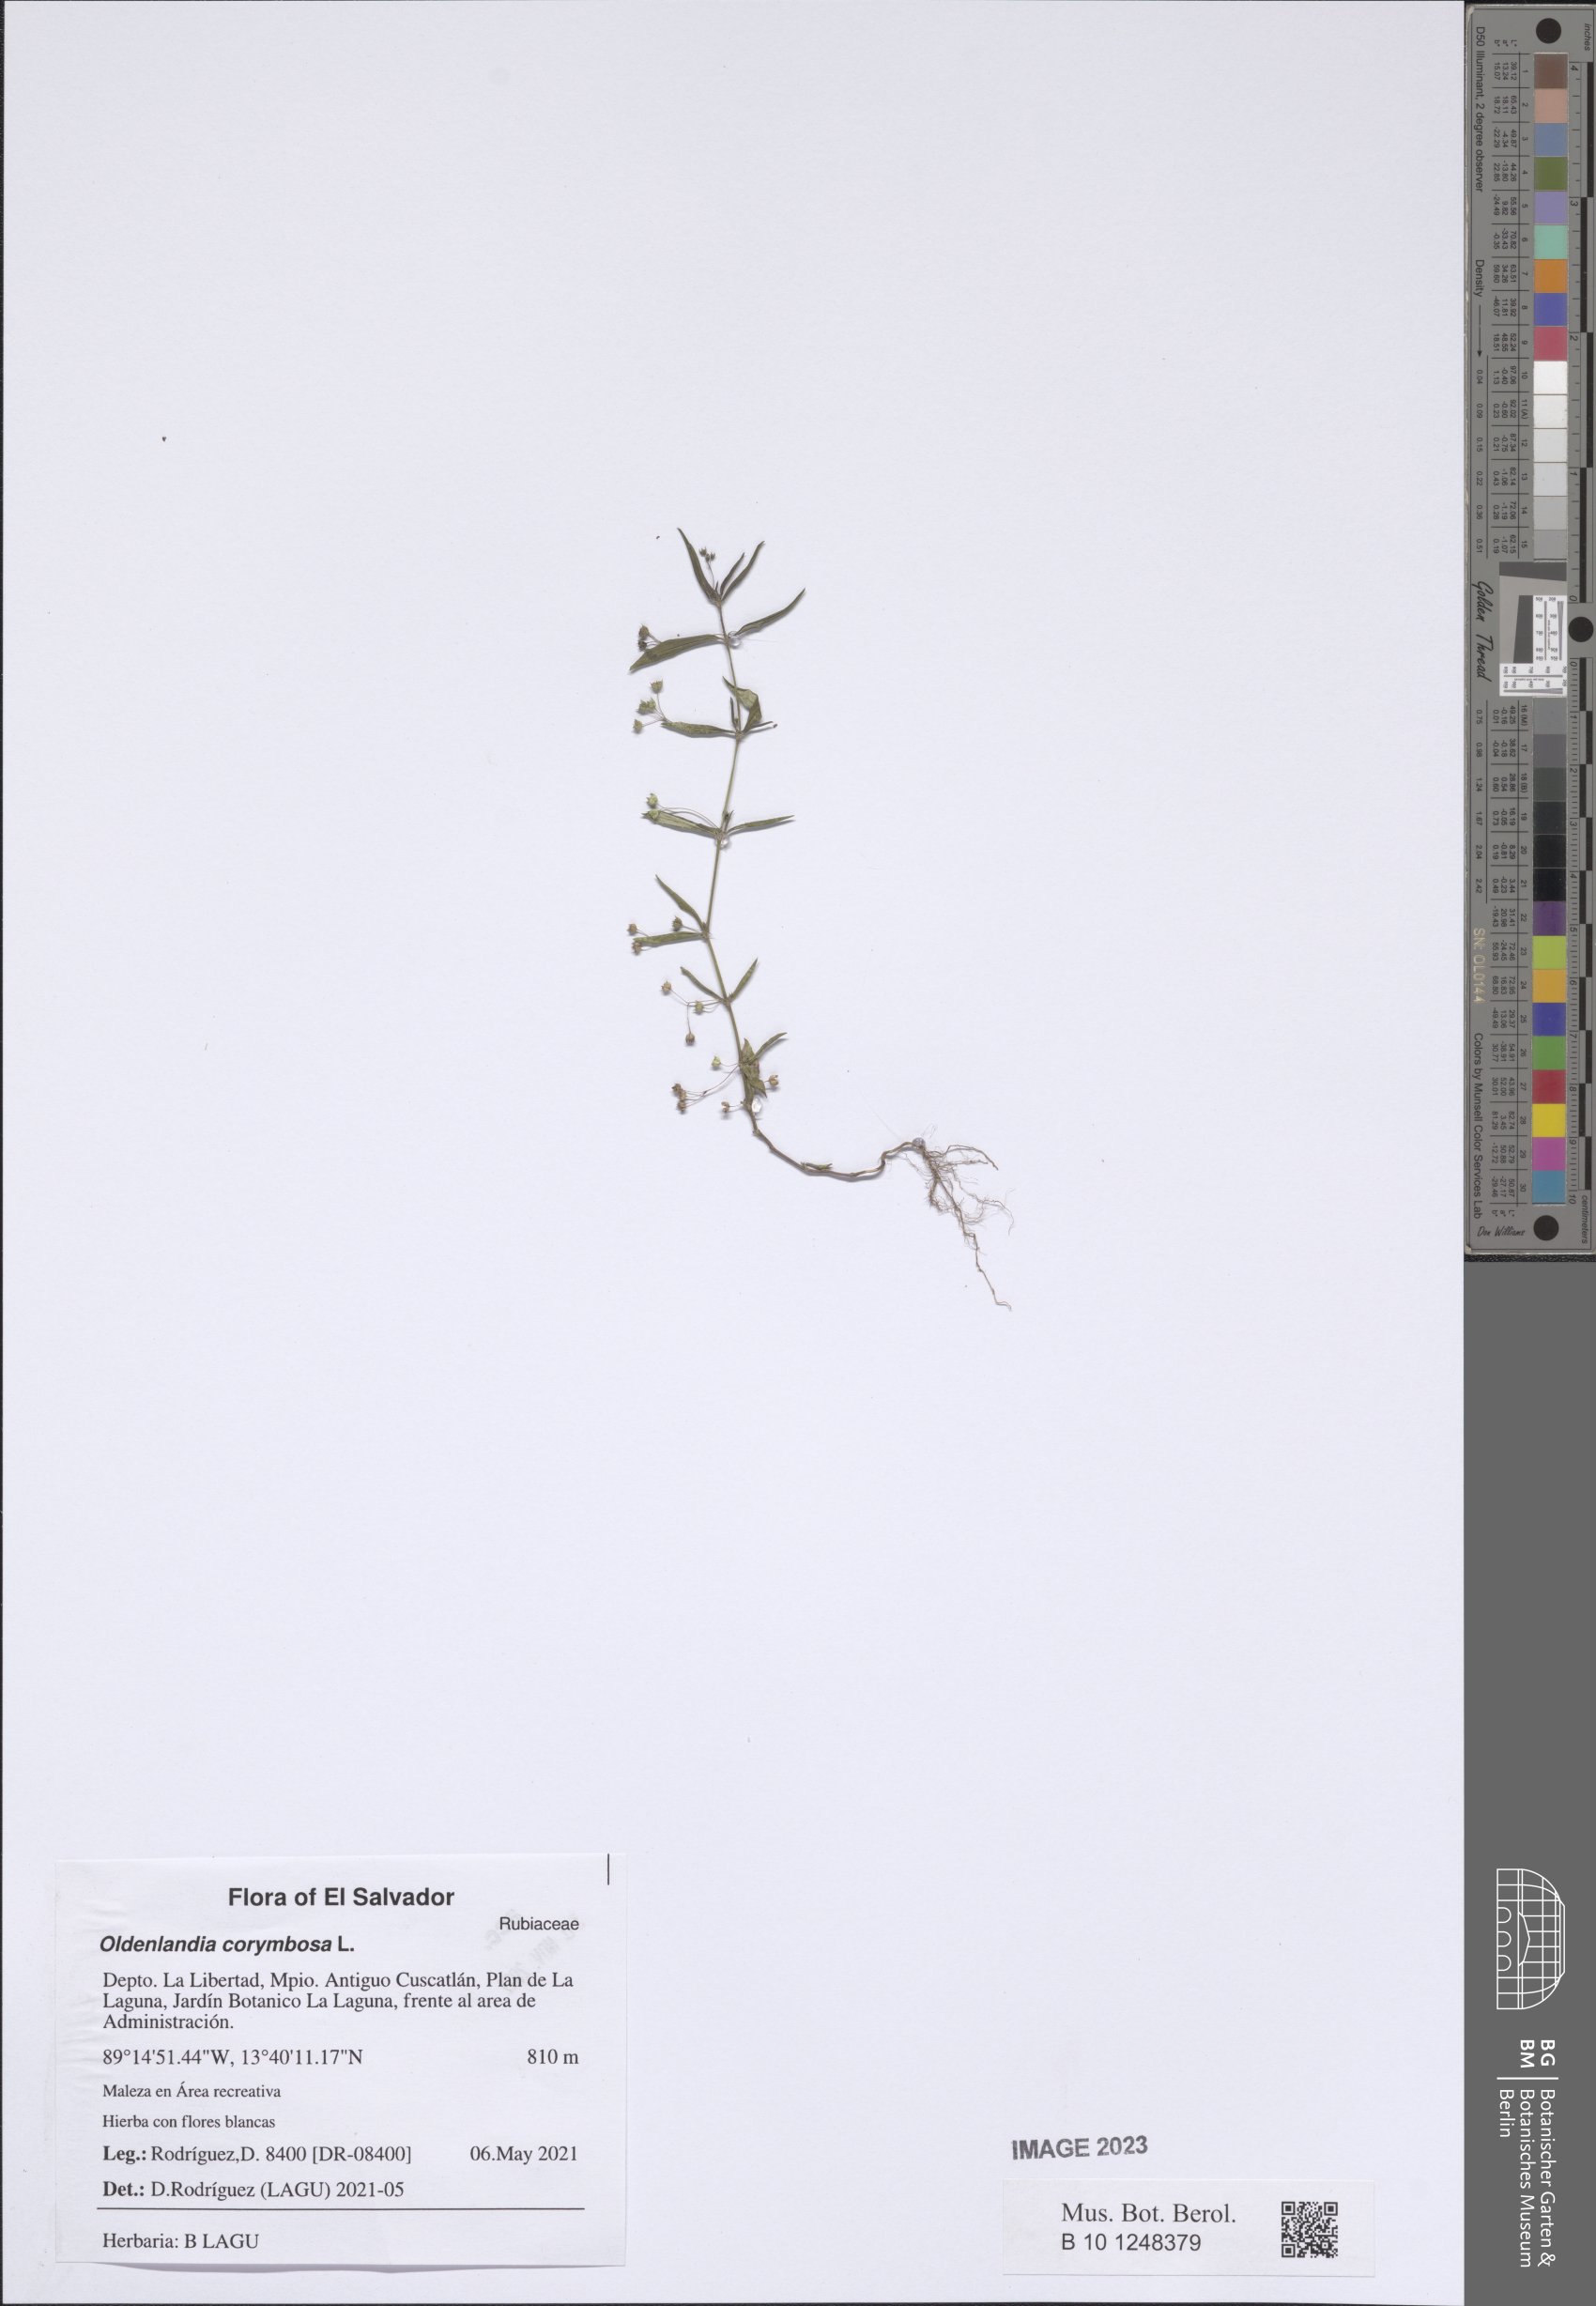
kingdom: Plantae
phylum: Tracheophyta
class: Magnoliopsida
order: Gentianales
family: Rubiaceae
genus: Oldenlandia
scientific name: Oldenlandia corymbosa
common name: Flat-top mille graines
